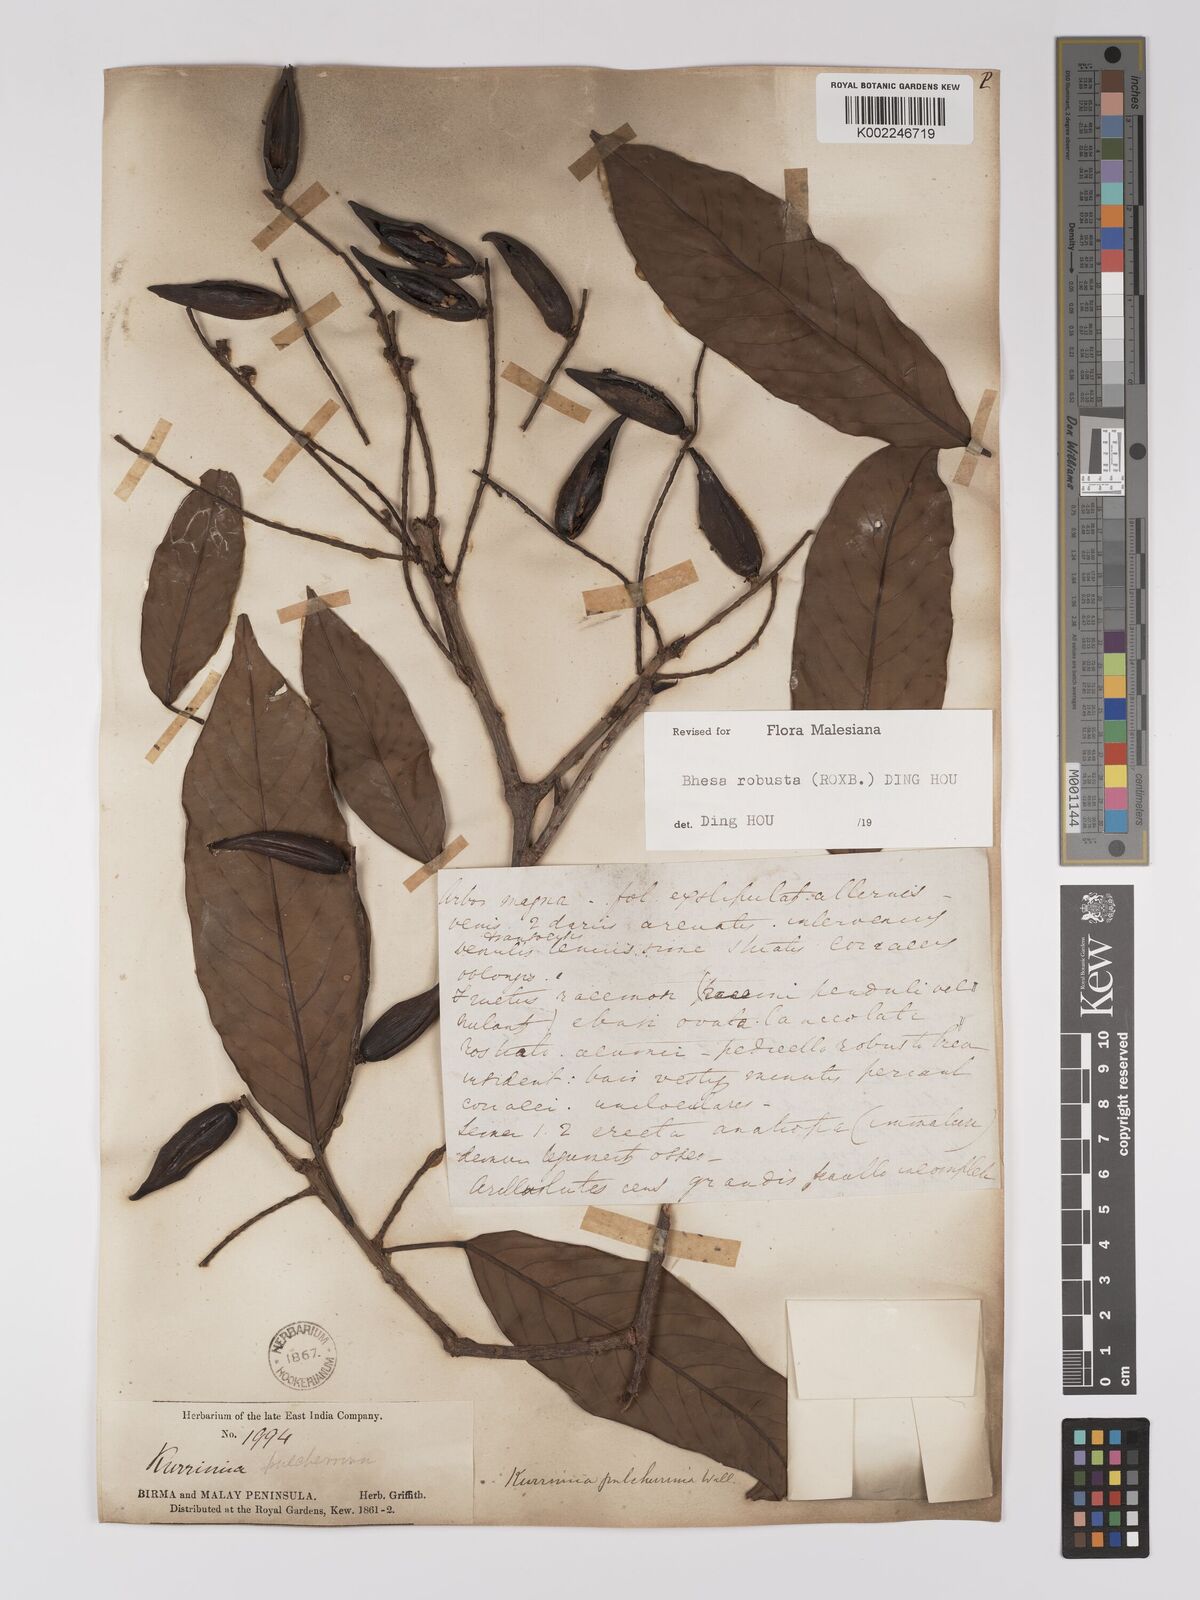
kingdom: Plantae
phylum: Tracheophyta
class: Magnoliopsida
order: Malpighiales
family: Centroplacaceae
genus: Bhesa
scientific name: Bhesa robusta
